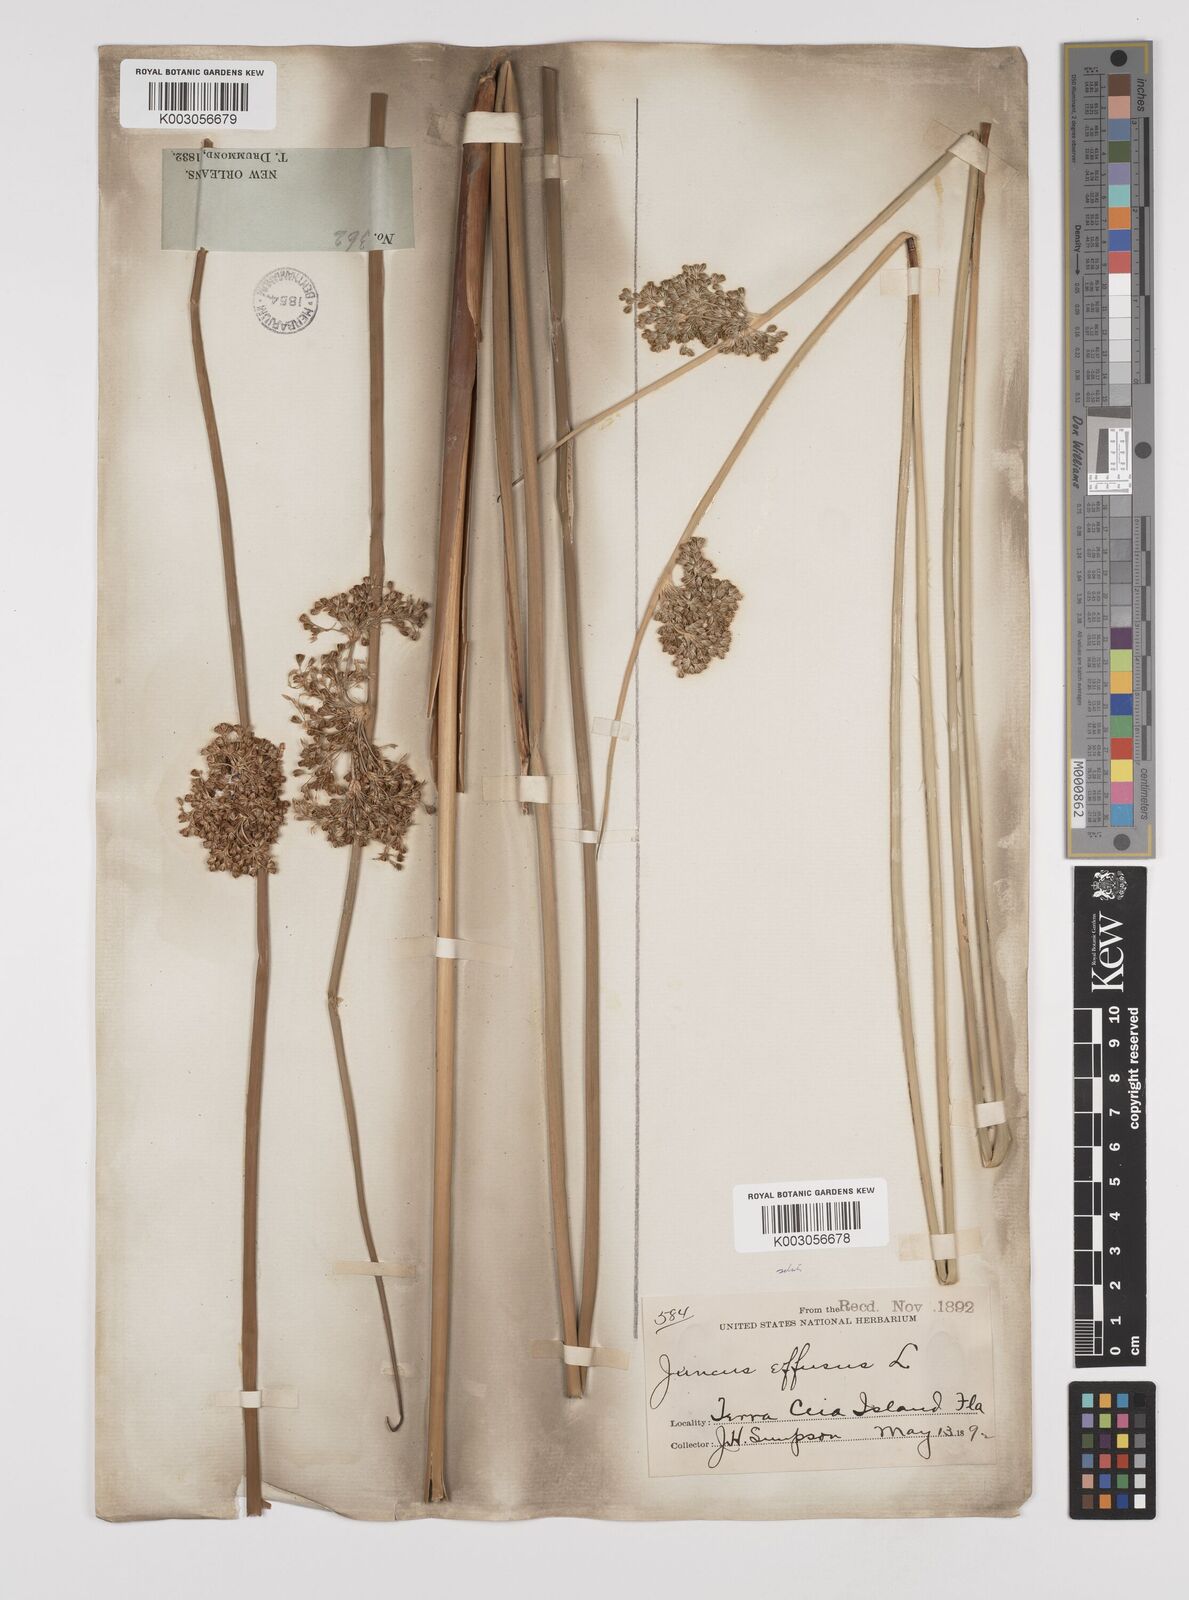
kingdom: Plantae
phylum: Tracheophyta
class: Liliopsida
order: Poales
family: Juncaceae
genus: Juncus
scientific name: Juncus effusus
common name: Soft rush
